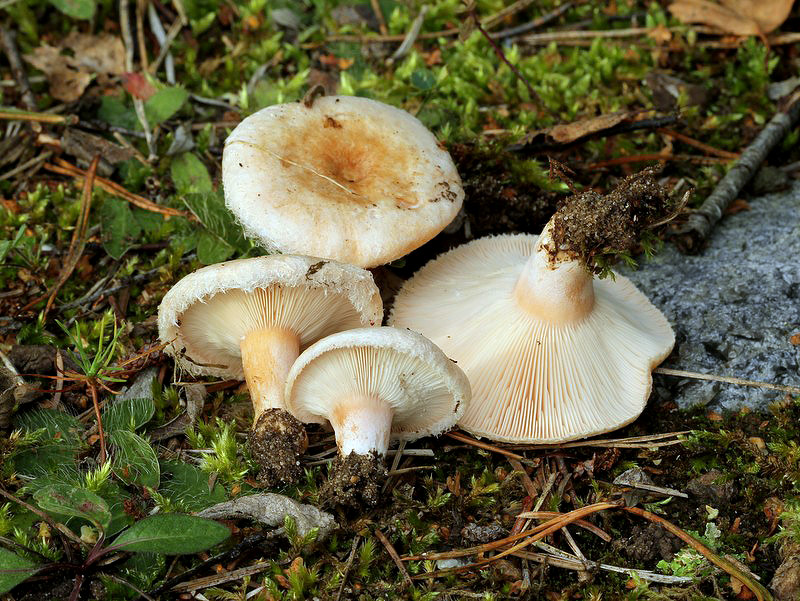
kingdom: Fungi
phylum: Basidiomycota
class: Agaricomycetes
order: Russulales
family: Russulaceae
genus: Lactarius
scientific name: Lactarius pubescens
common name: dunet mælkehat
